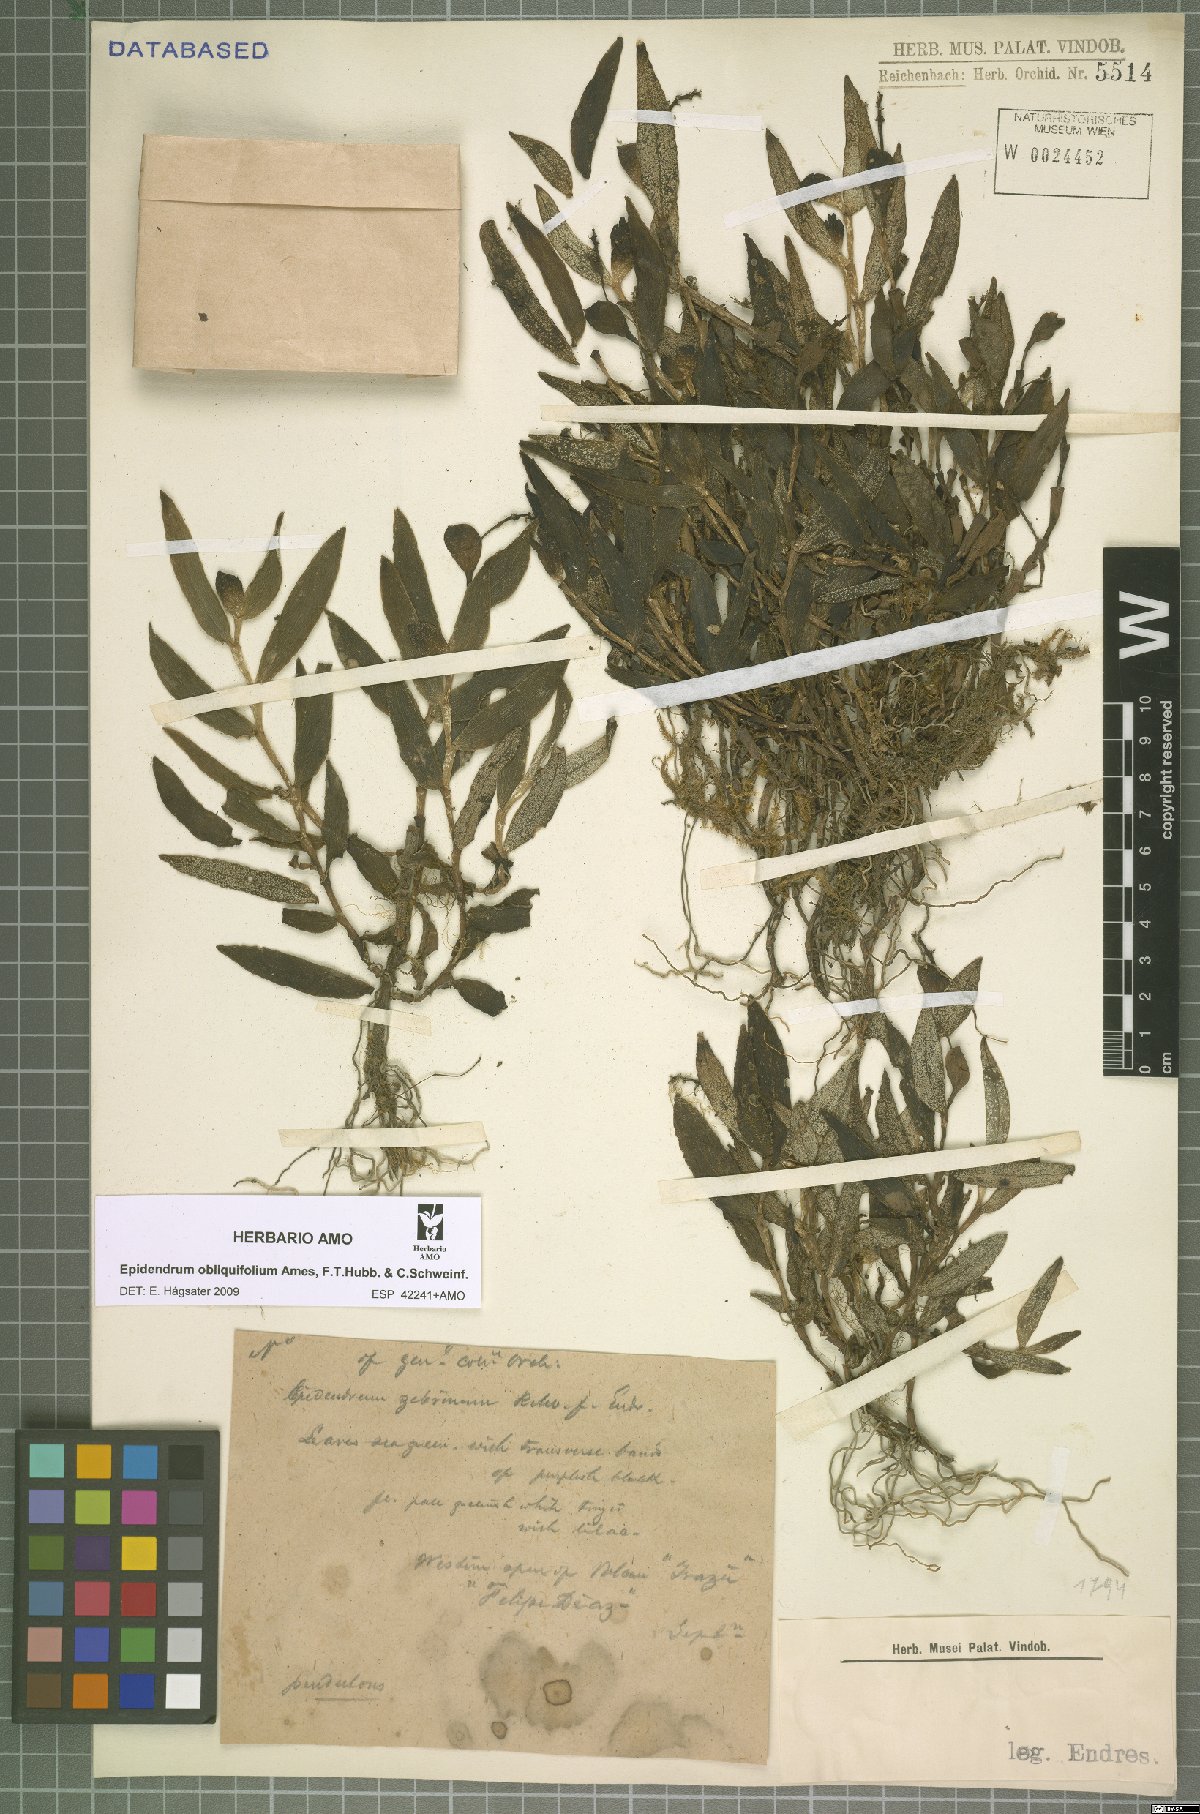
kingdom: Plantae
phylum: Tracheophyta
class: Liliopsida
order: Asparagales
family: Orchidaceae
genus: Epidendrum
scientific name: Epidendrum obliquifolium
